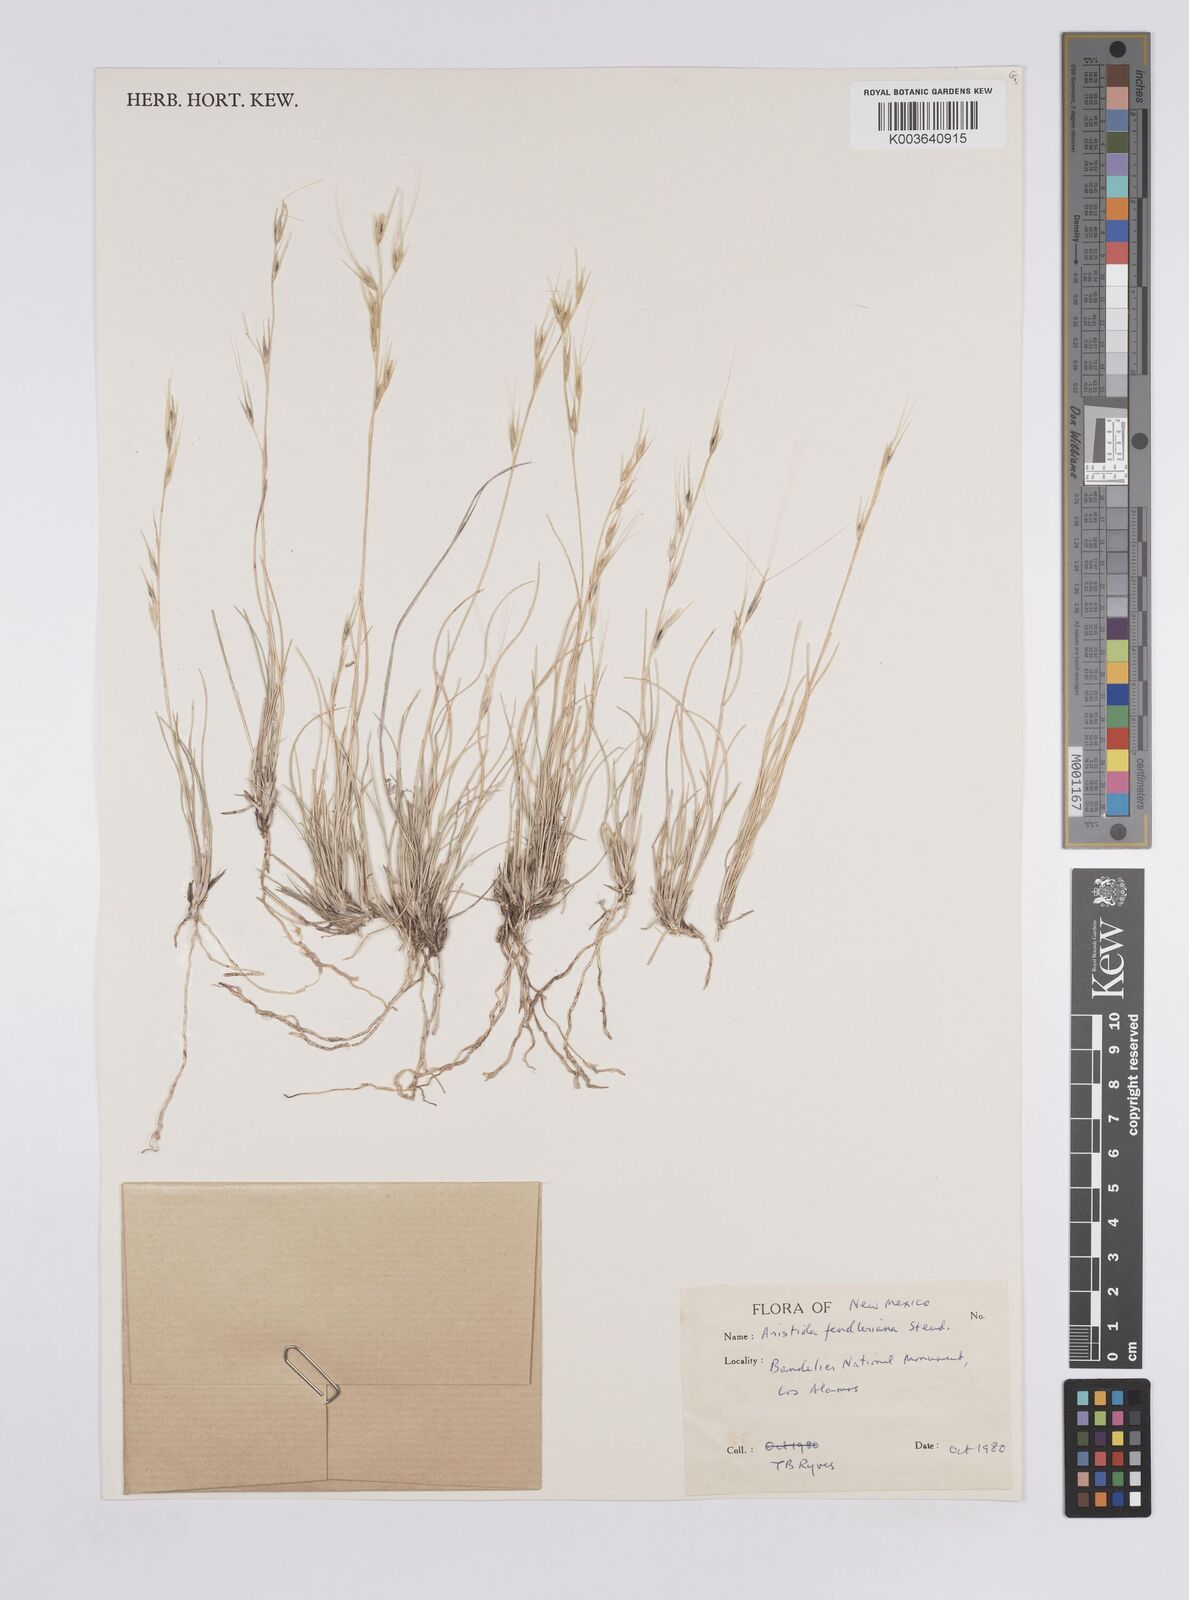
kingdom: Plantae
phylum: Tracheophyta
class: Liliopsida
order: Poales
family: Poaceae
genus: Aristida
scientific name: Aristida purpurea
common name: Purple threeawn
